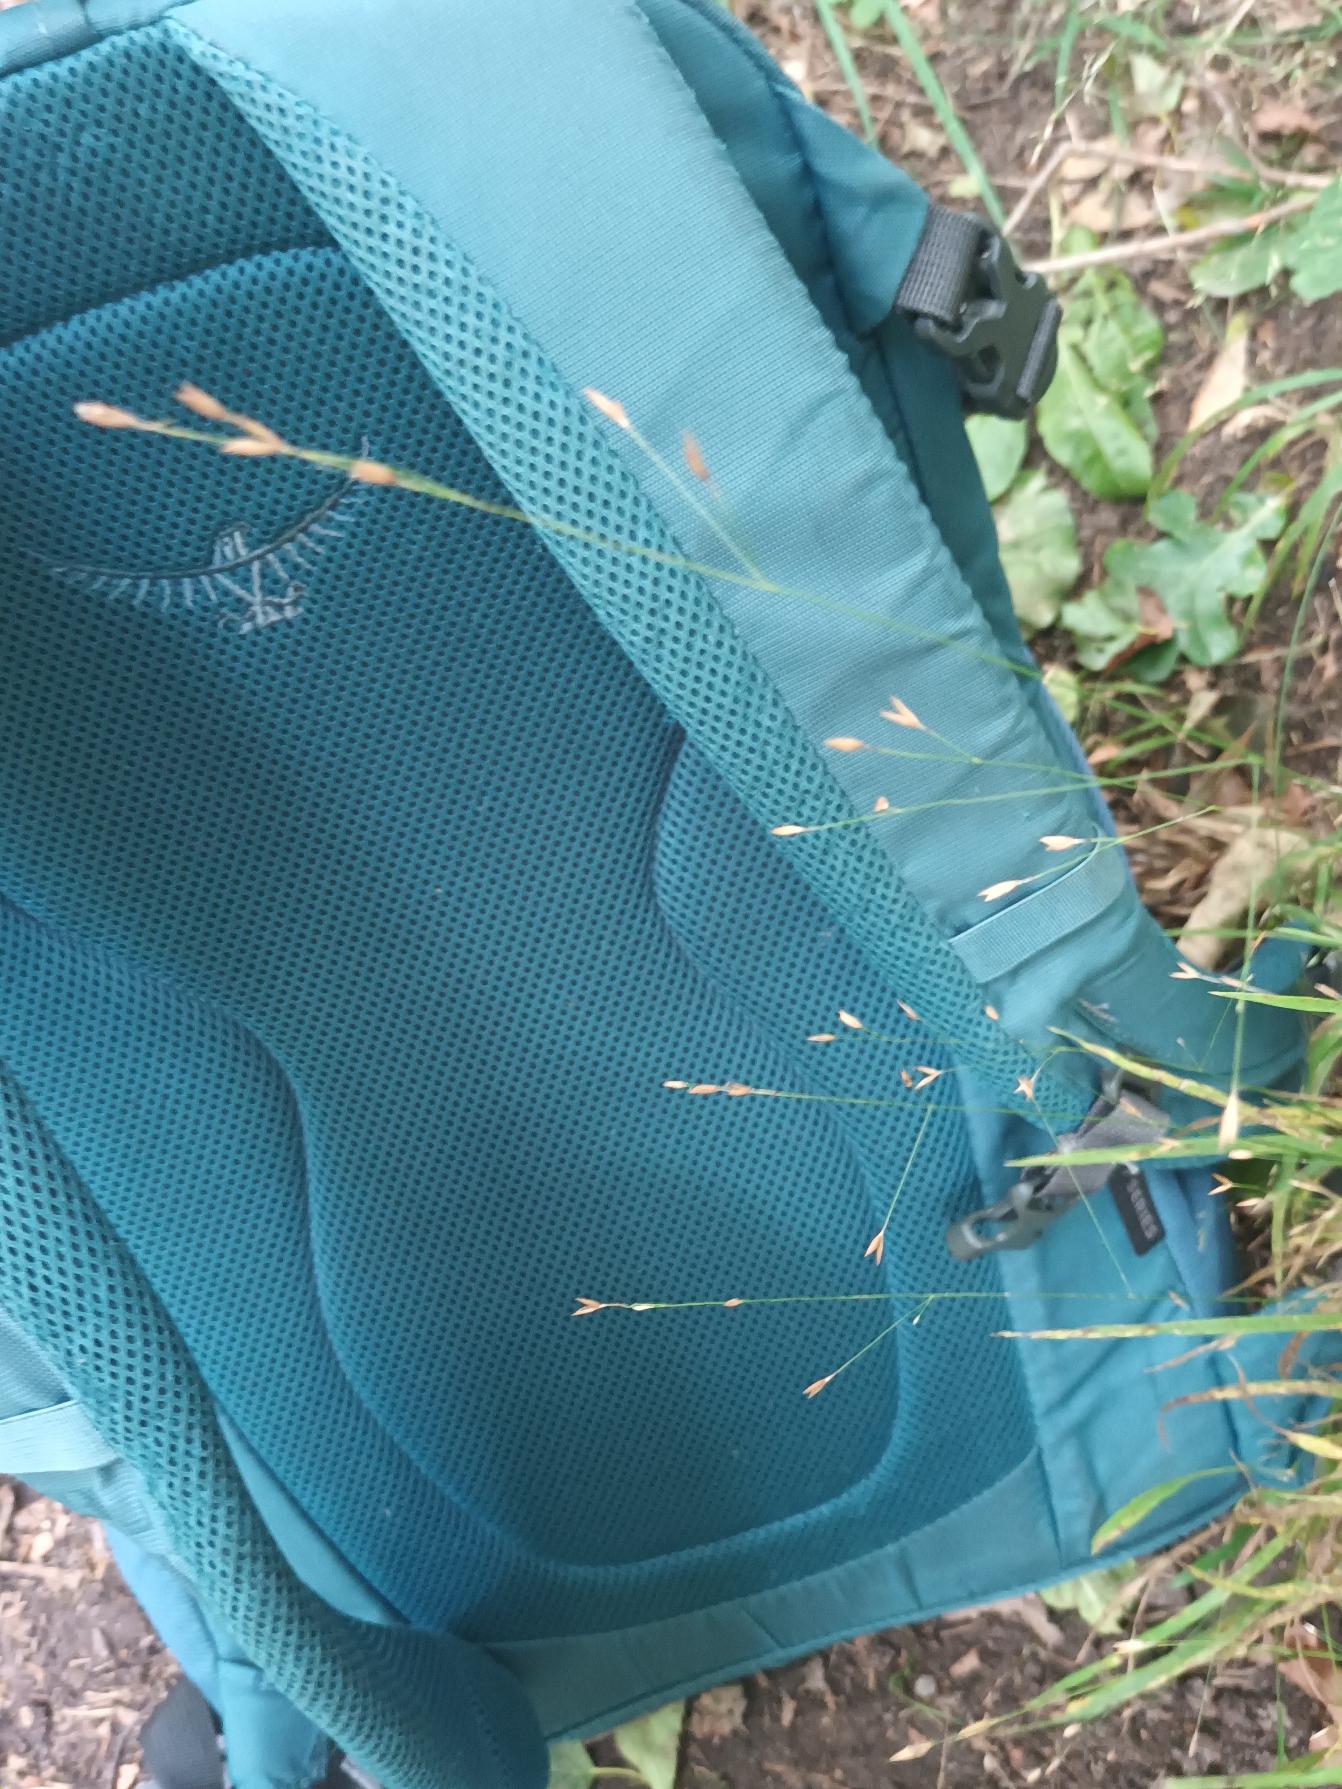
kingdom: Plantae
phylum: Tracheophyta
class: Liliopsida
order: Poales
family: Poaceae
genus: Melica
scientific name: Melica uniflora
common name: Enblomstret flitteraks
